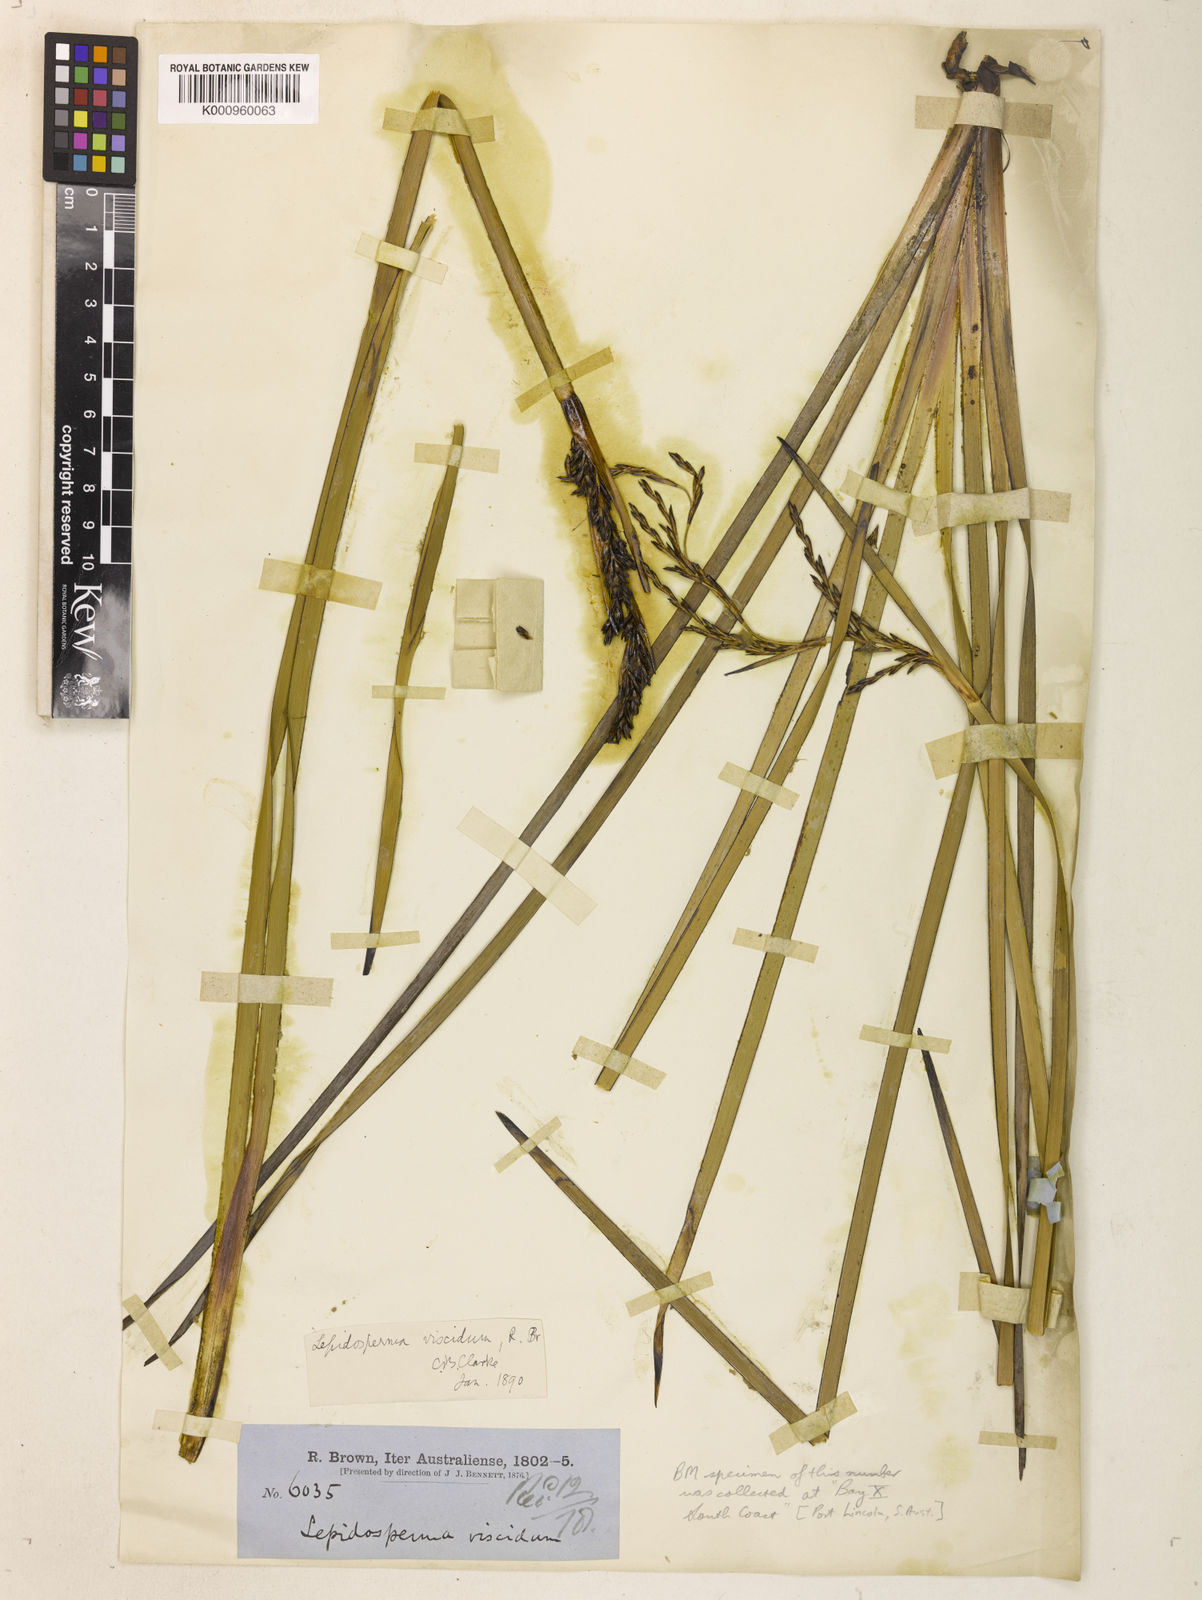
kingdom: Plantae
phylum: Tracheophyta
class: Liliopsida
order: Poales
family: Cyperaceae
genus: Lepidosperma
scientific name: Lepidosperma viscidum
